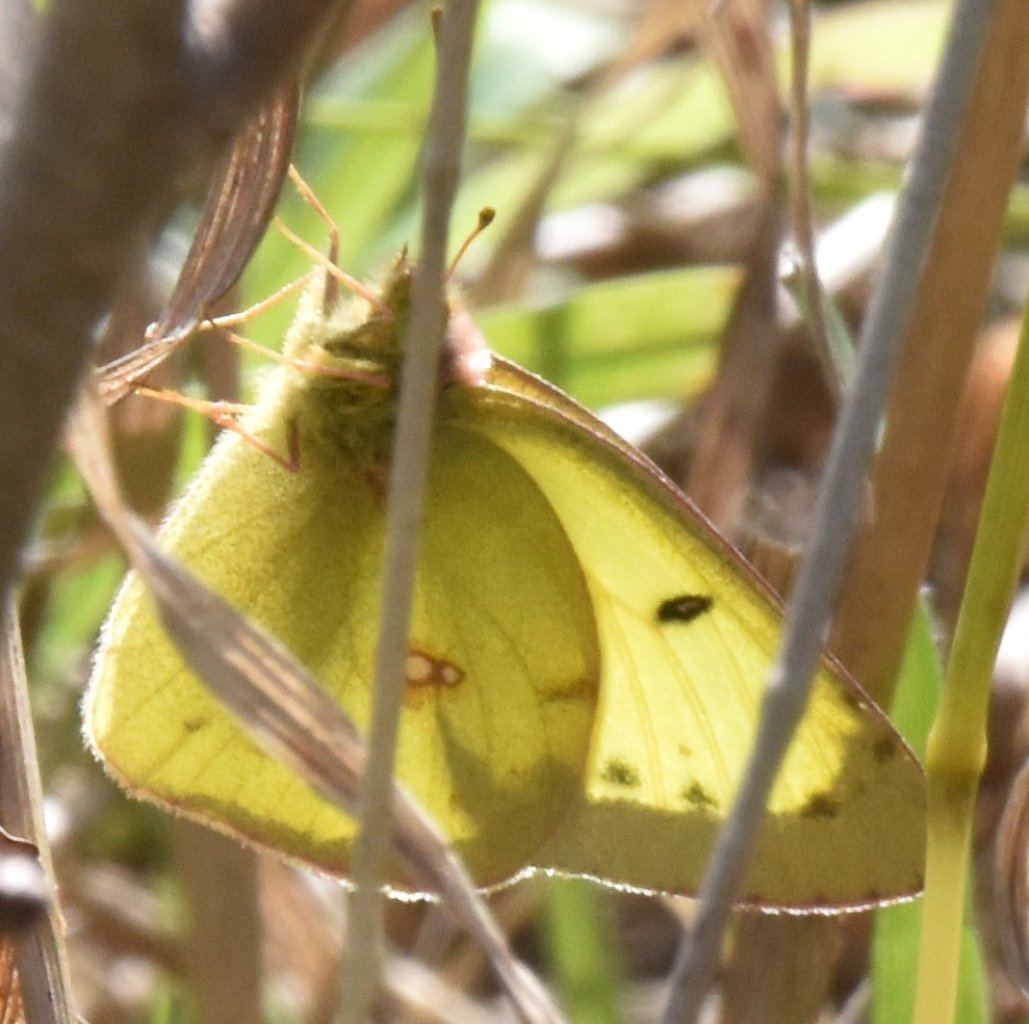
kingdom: Animalia
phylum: Arthropoda
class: Insecta
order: Lepidoptera
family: Pieridae
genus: Colias
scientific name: Colias philodice
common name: Clouded Sulphur
